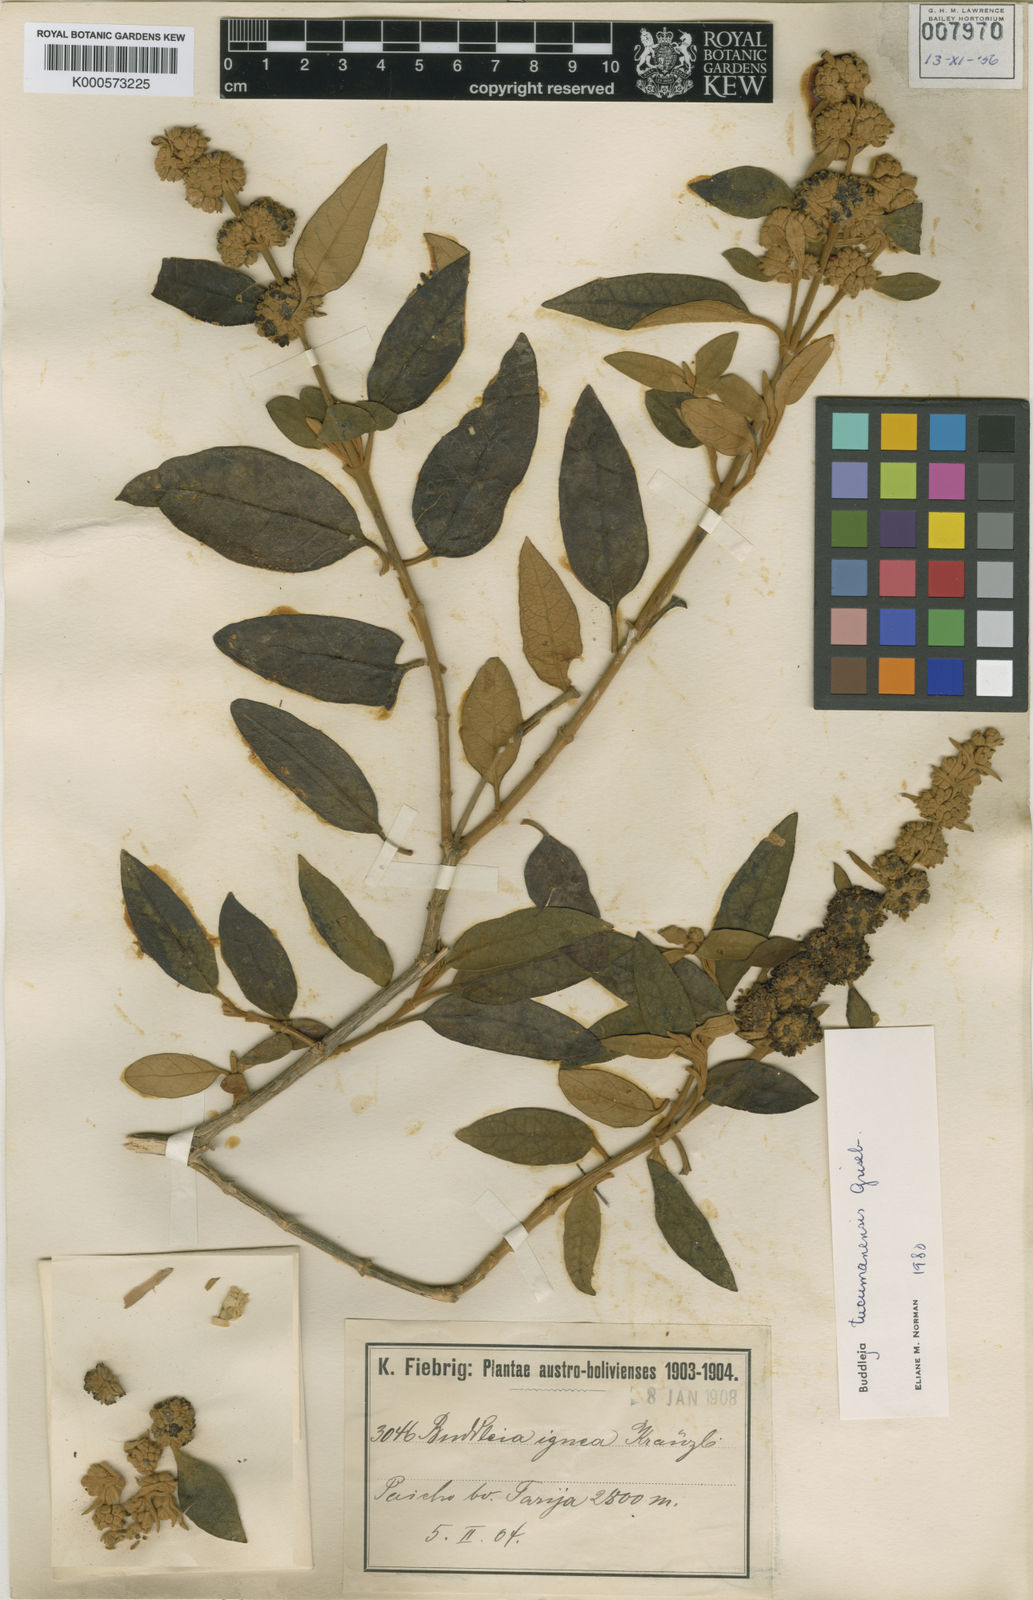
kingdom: Plantae
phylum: Tracheophyta
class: Magnoliopsida
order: Lamiales
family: Scrophulariaceae
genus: Buddleja
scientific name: Buddleja tucumanensis
